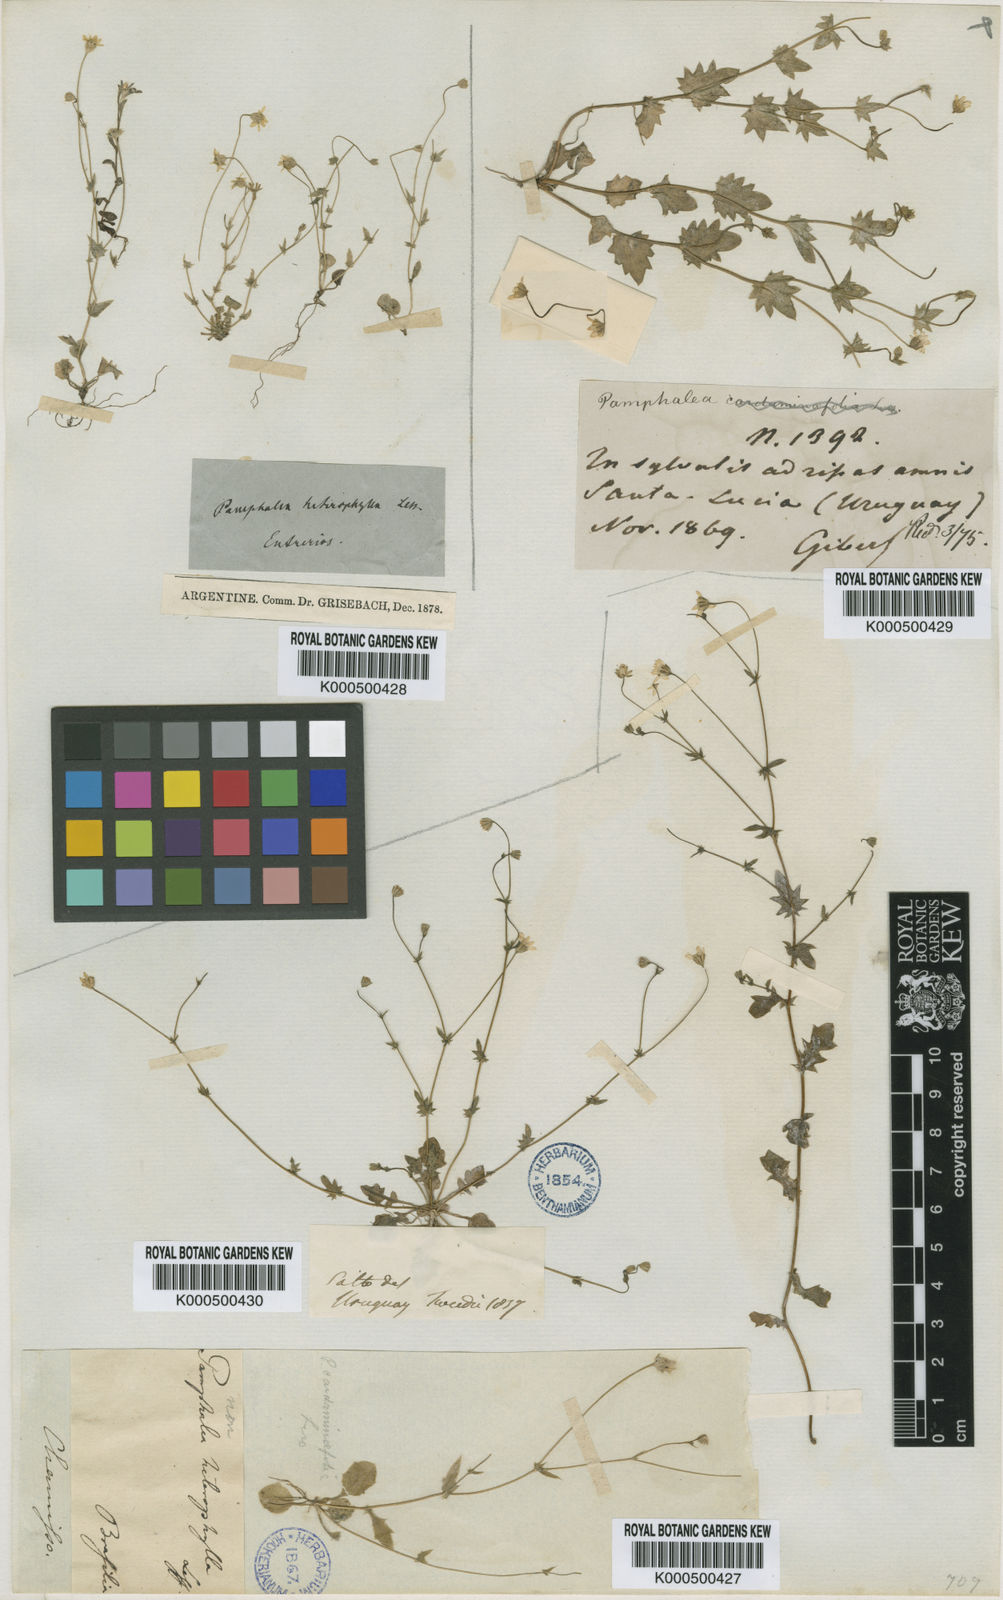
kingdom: Plantae
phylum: Tracheophyta
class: Magnoliopsida
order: Asterales
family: Asteraceae
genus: Panphalea
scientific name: Panphalea heterophylla
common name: Daisy
